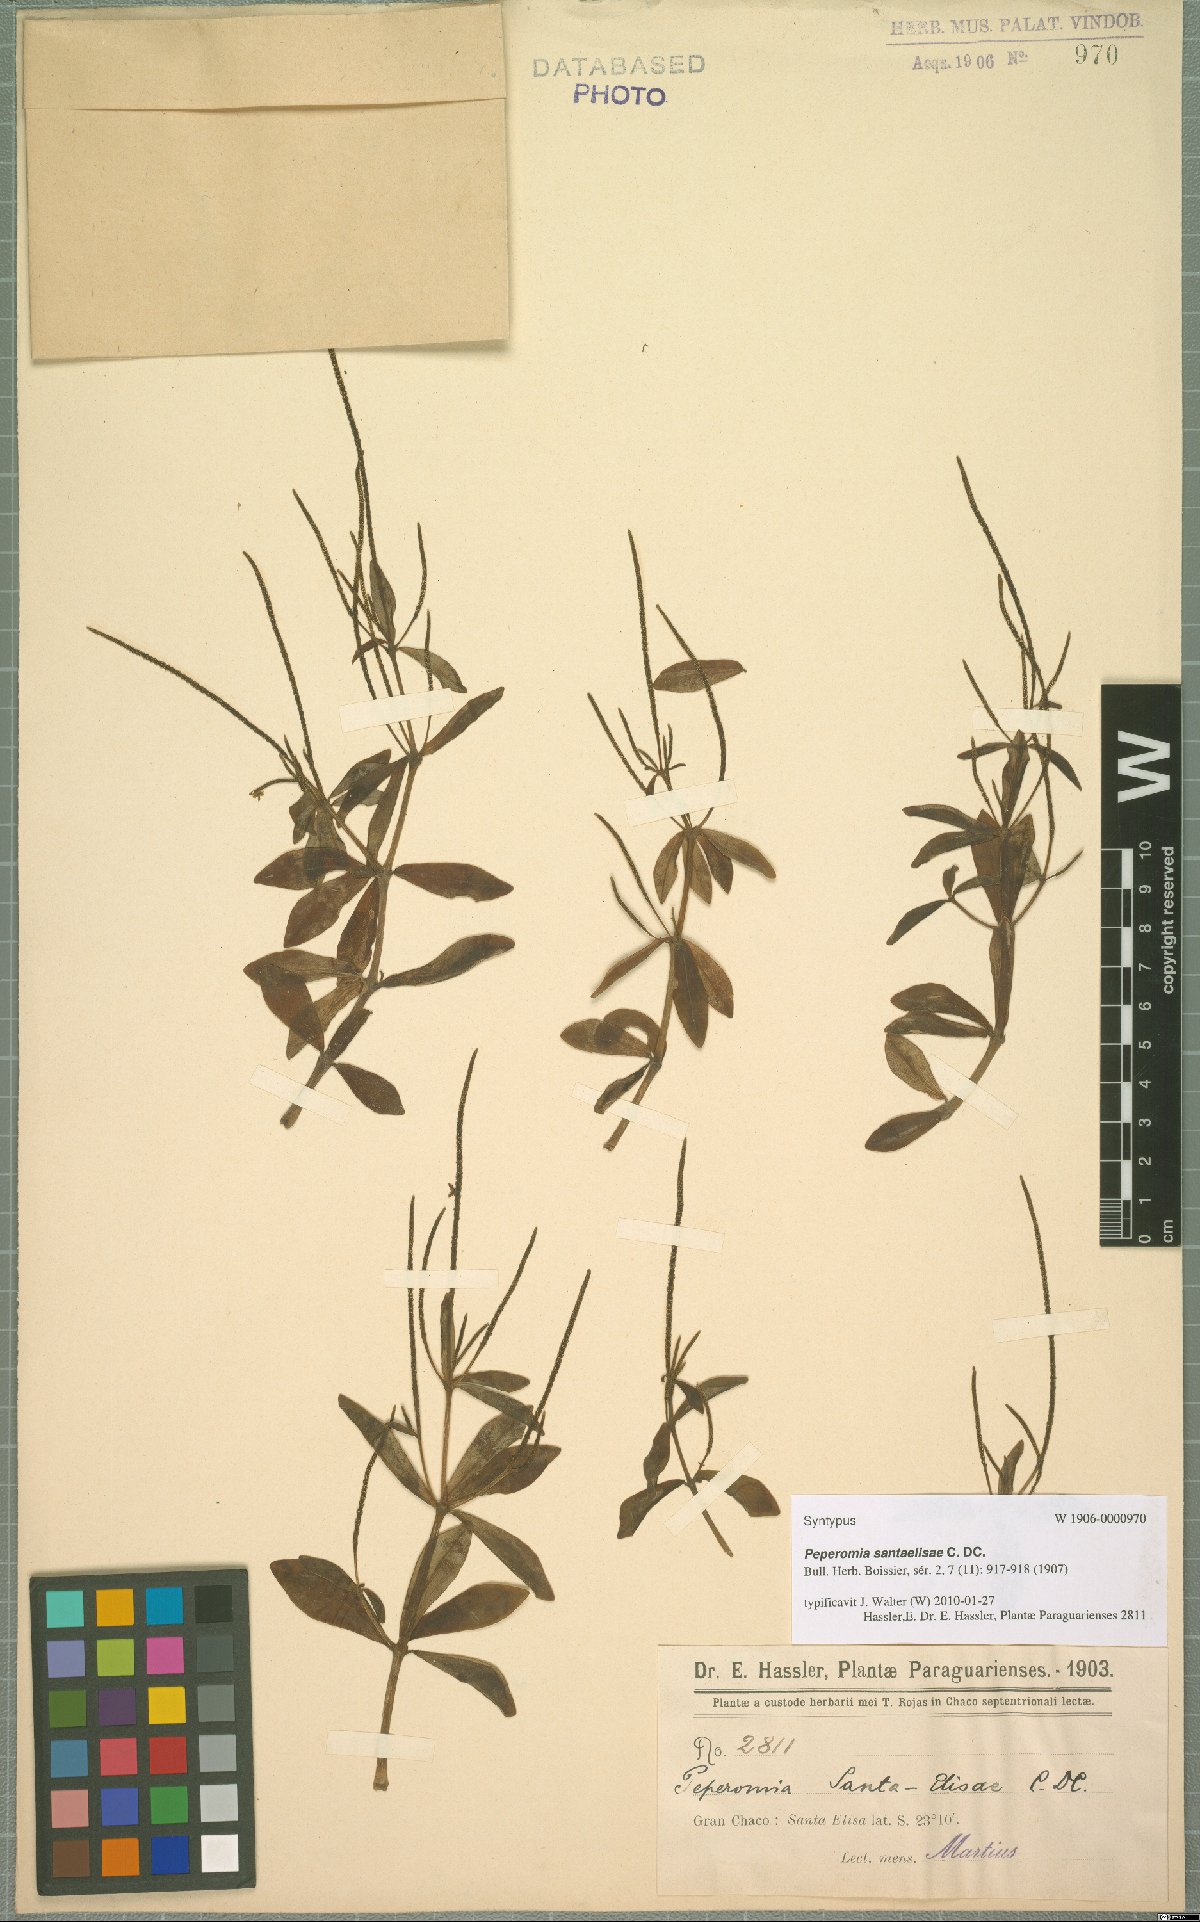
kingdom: Plantae
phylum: Tracheophyta
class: Magnoliopsida
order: Piperales
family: Piperaceae
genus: Peperomia
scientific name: Peperomia santa-elisae
